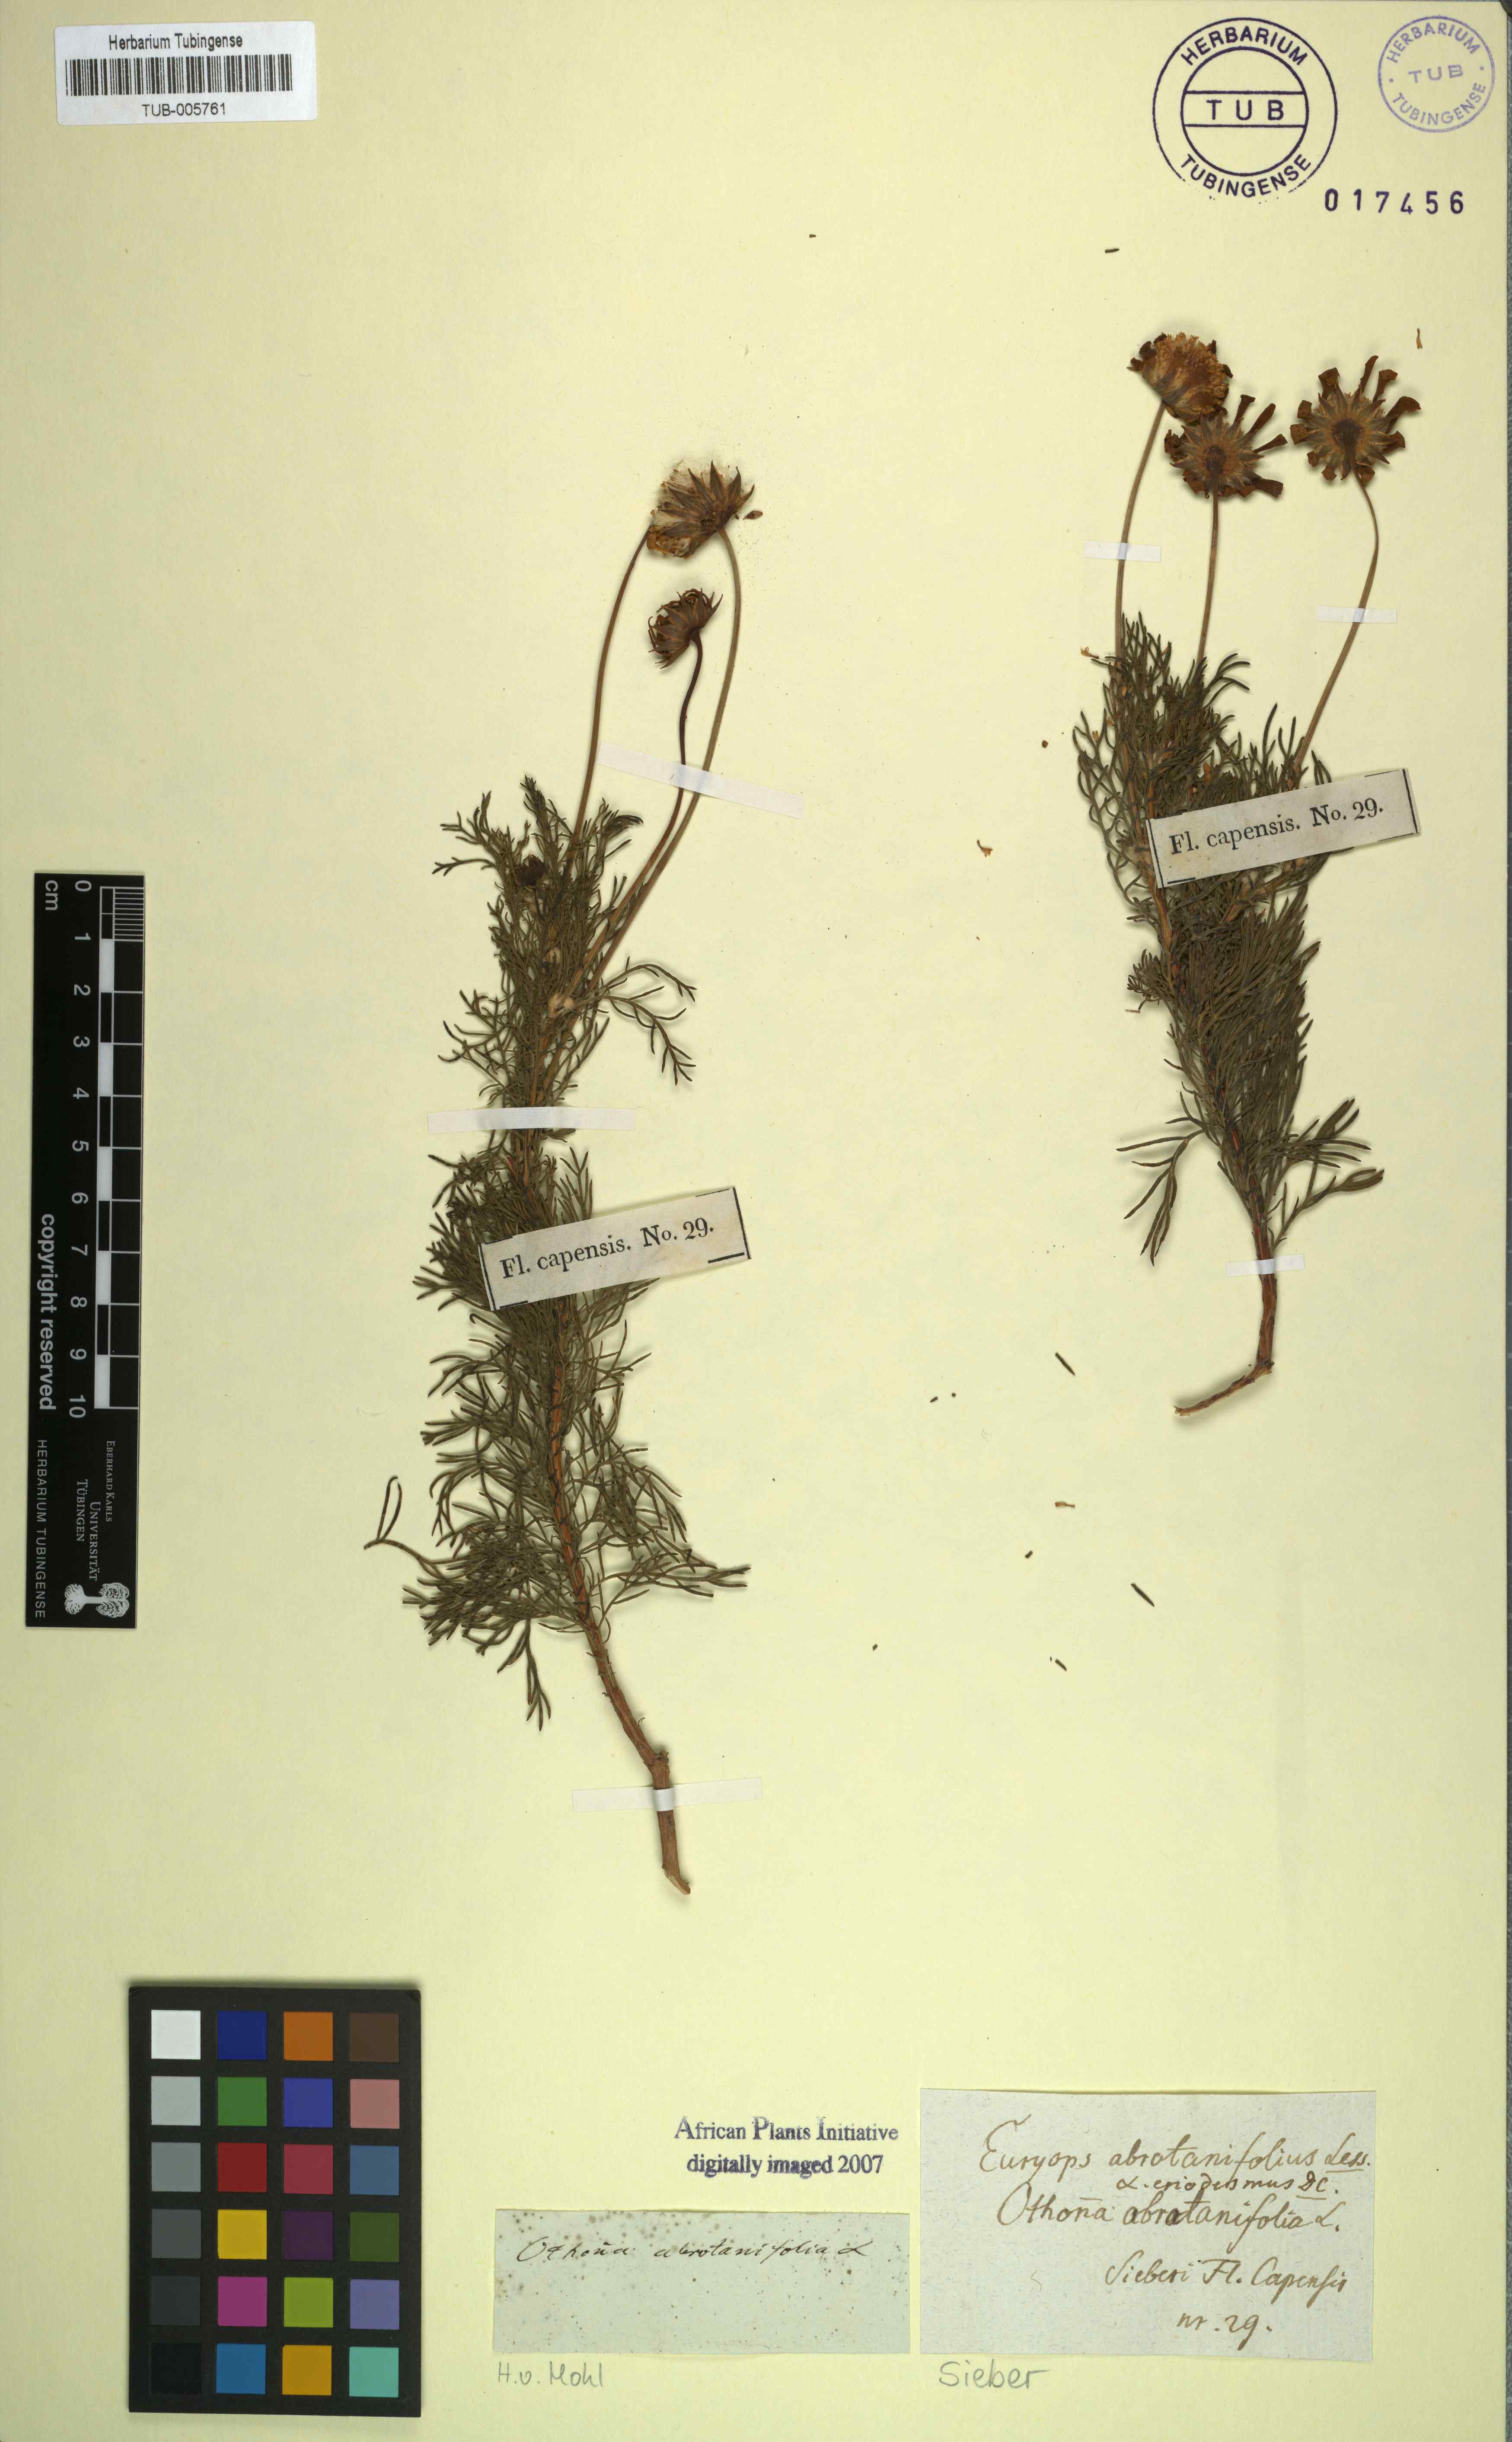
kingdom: Plantae
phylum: Tracheophyta
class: Magnoliopsida
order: Asterales
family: Asteraceae
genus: Euryops
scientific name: Euryops abrotanifolius
